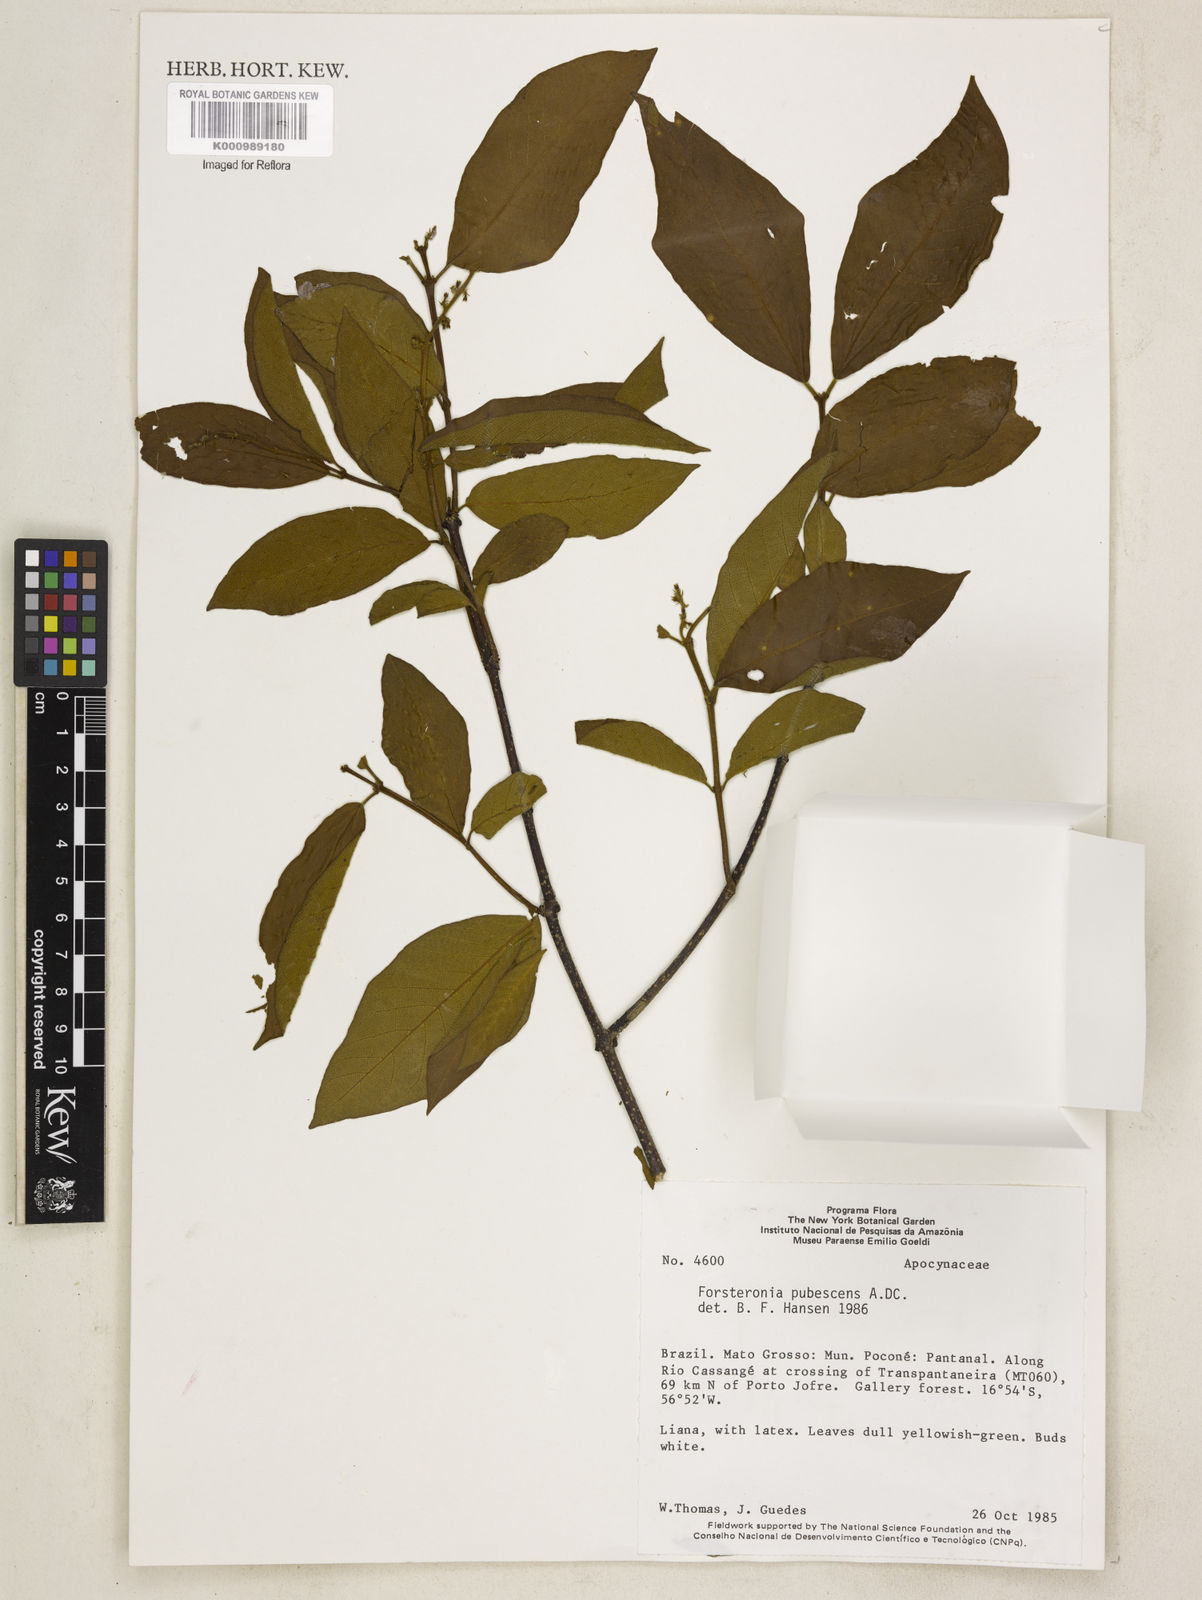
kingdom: Plantae
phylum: Tracheophyta
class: Magnoliopsida
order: Gentianales
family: Apocynaceae
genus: Forsteronia
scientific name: Forsteronia
